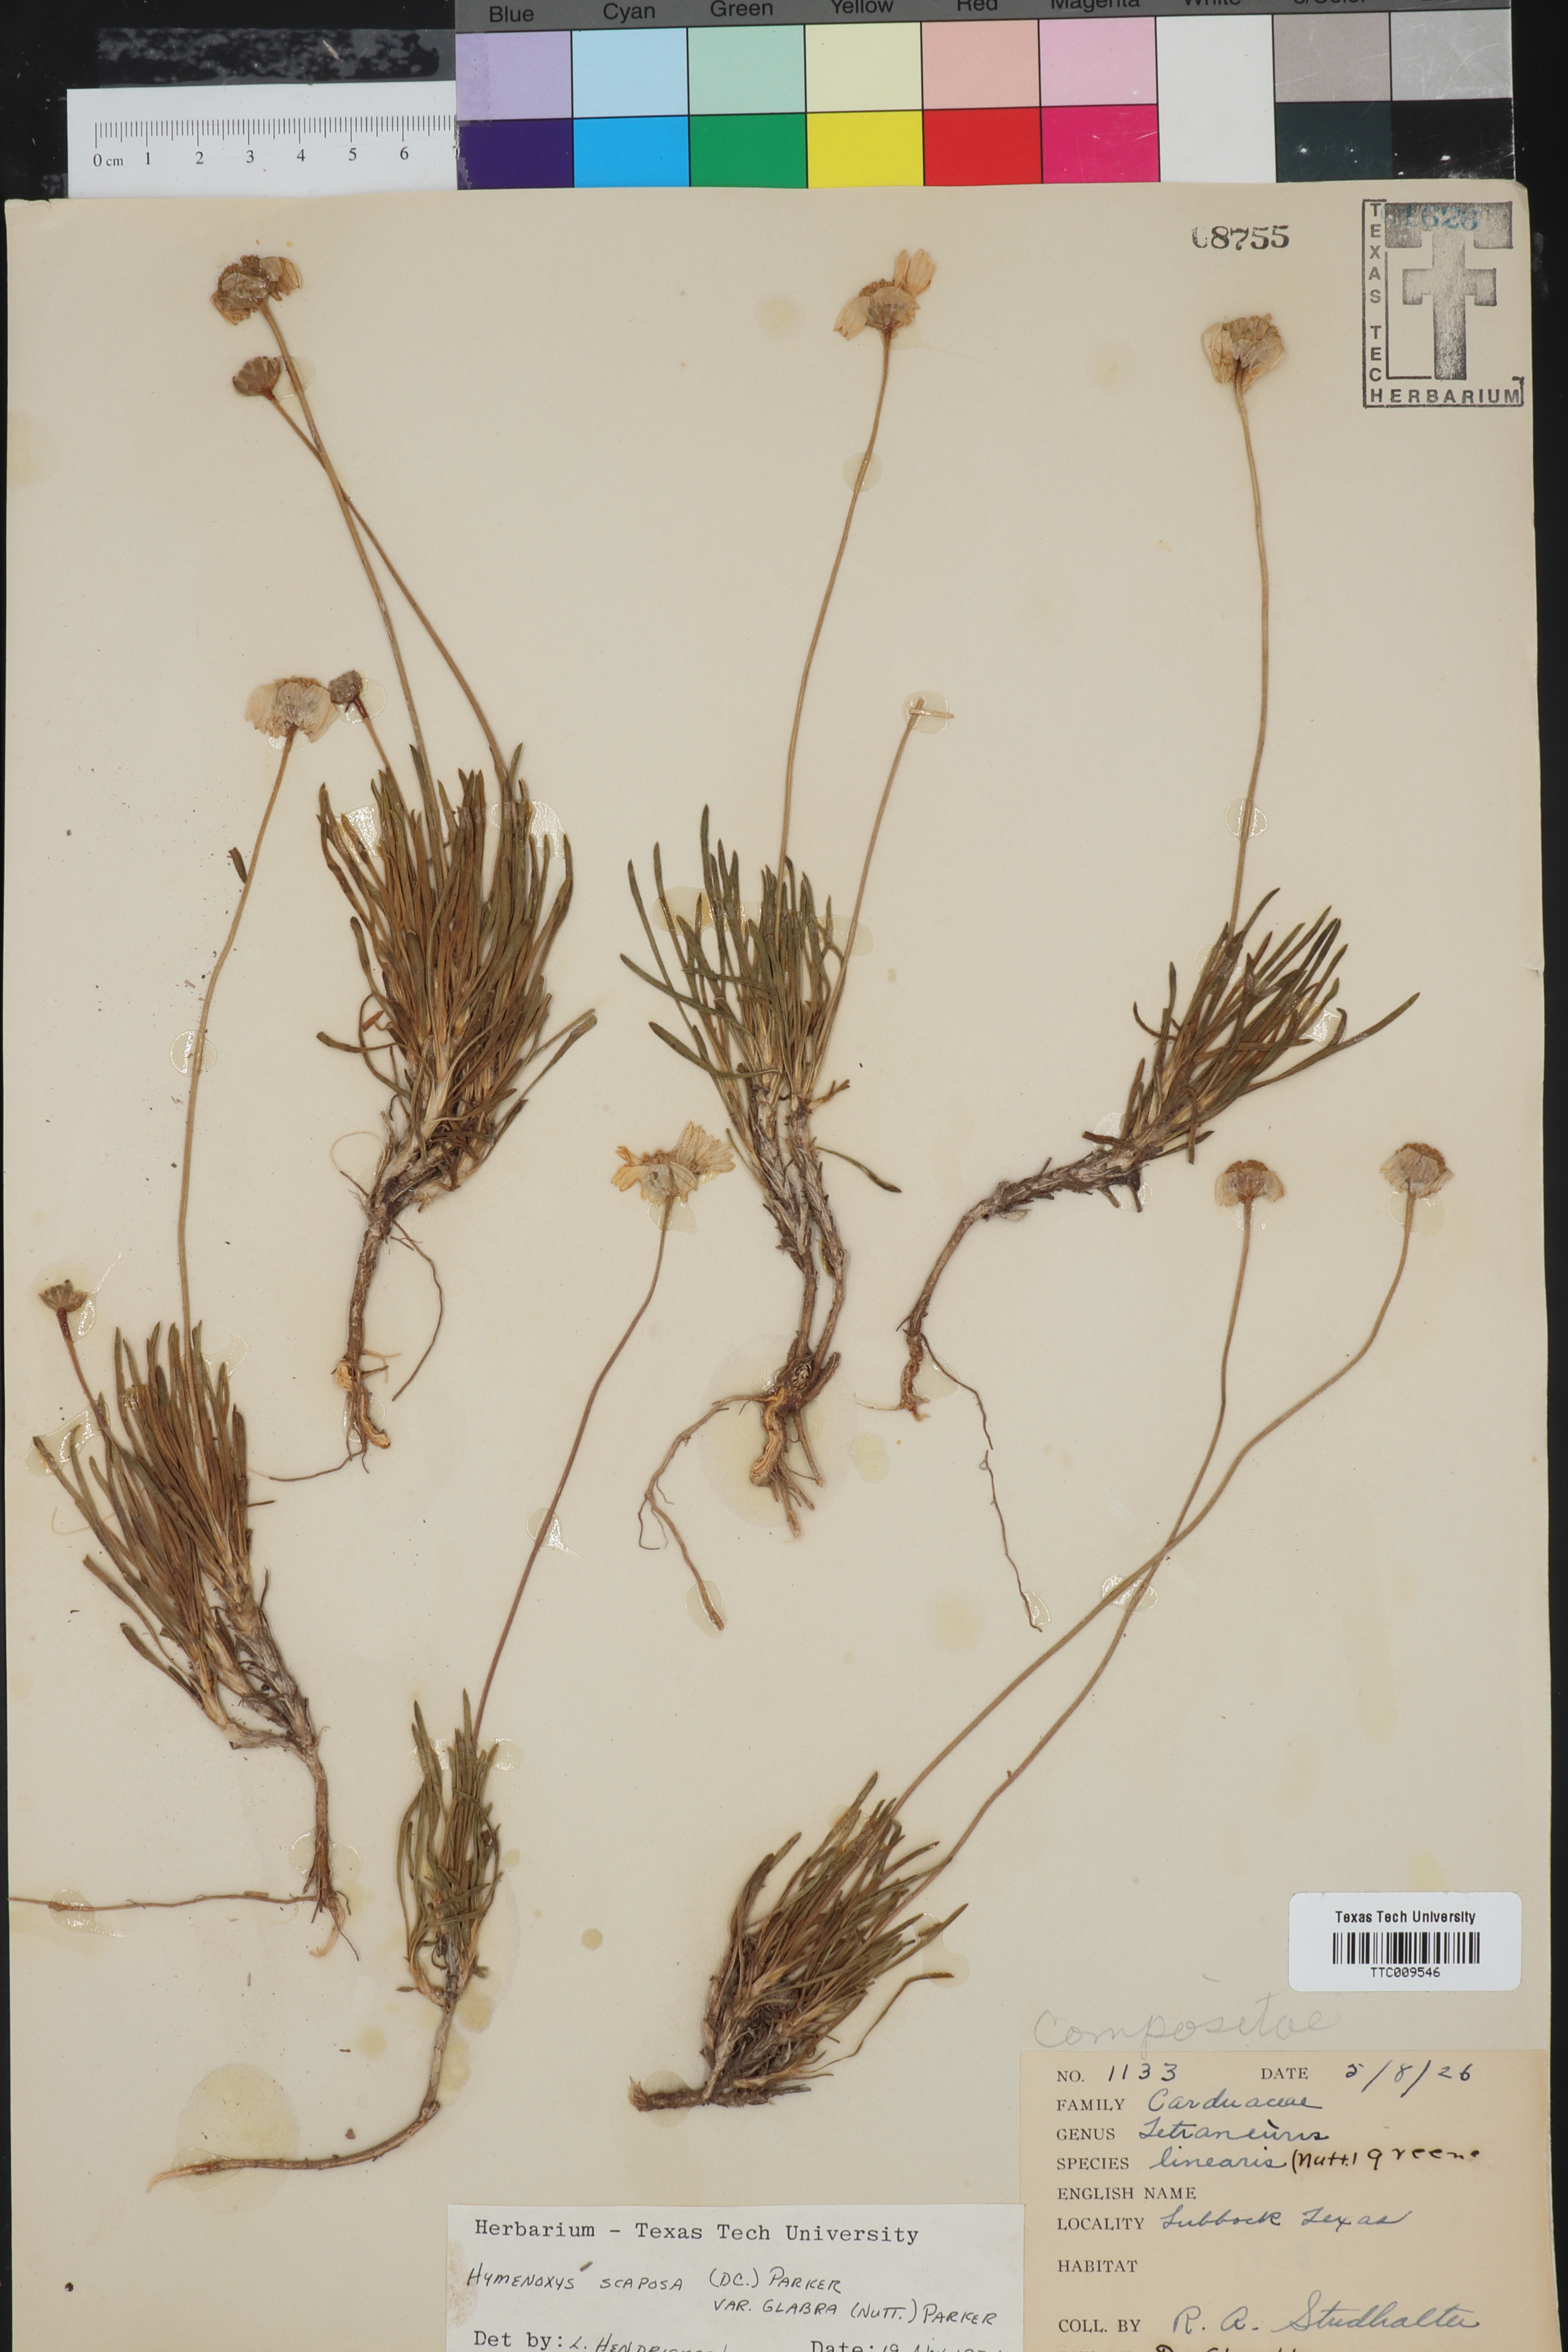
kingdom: Plantae
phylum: Tracheophyta
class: Magnoliopsida
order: Asterales
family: Asteraceae
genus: Tetraneuris
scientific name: Tetraneuris scaposa
